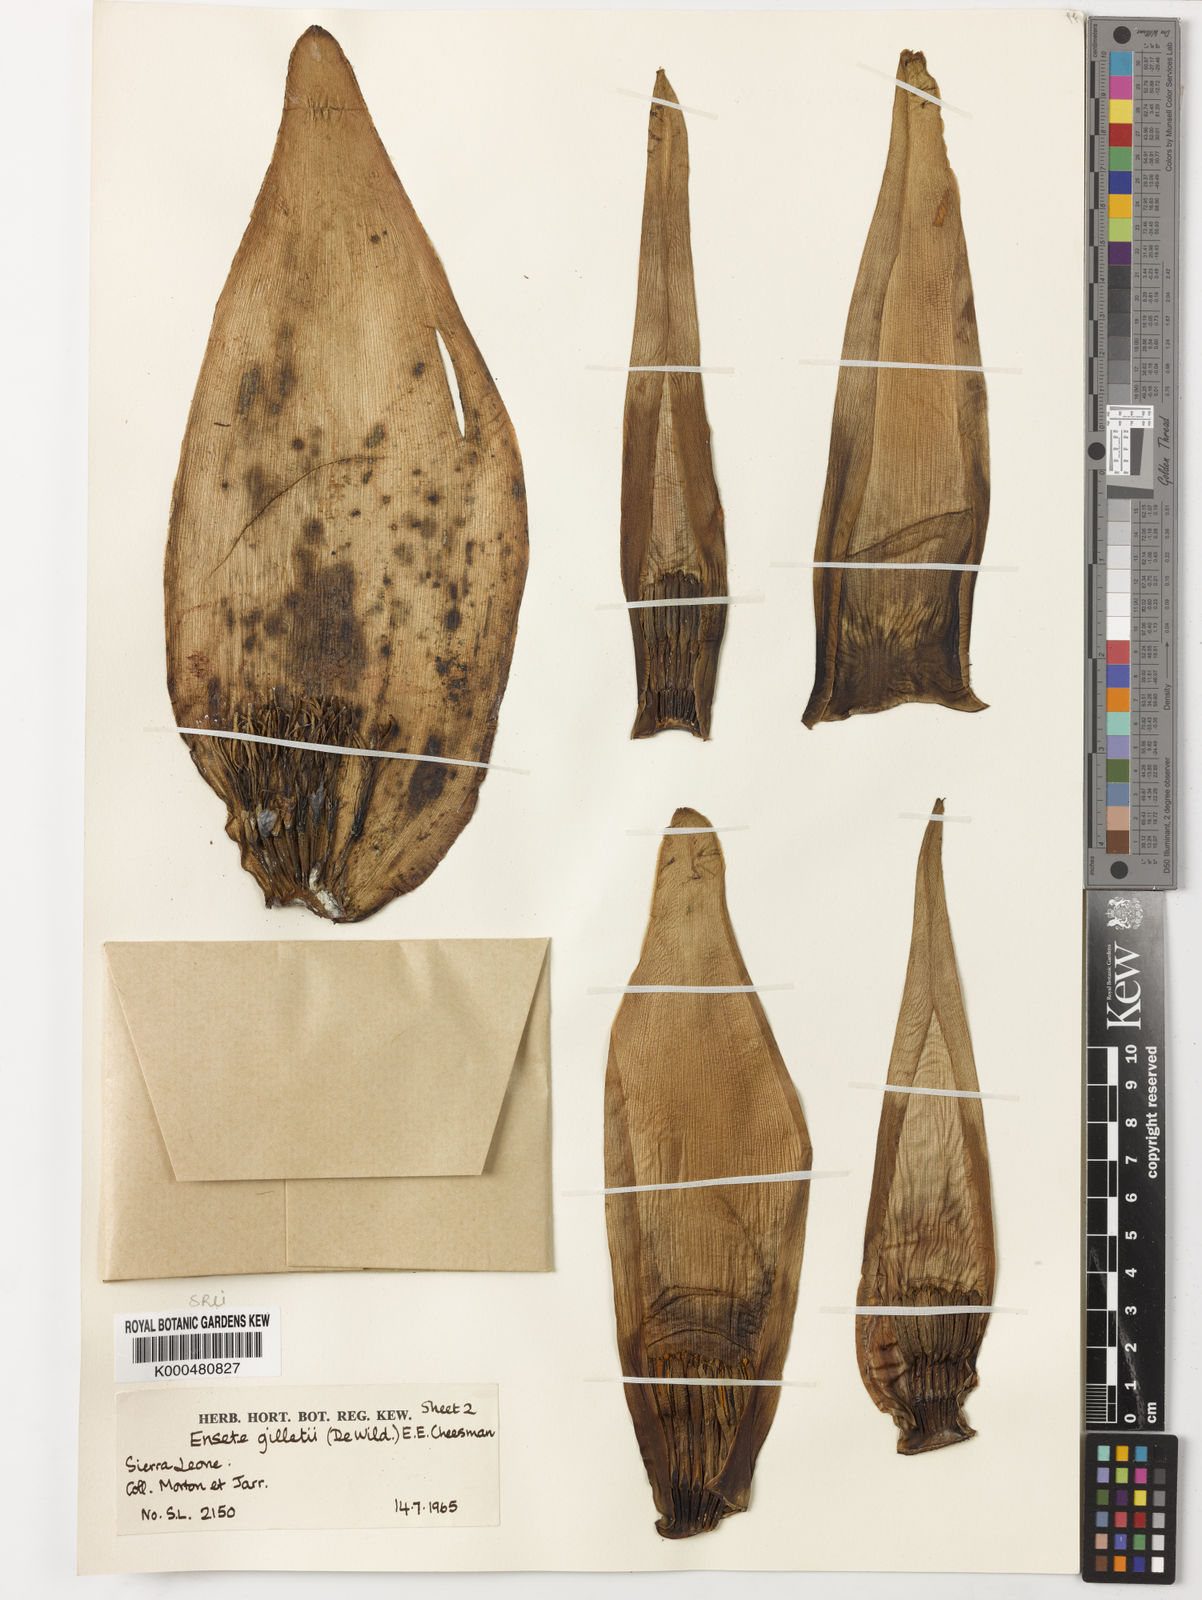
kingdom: Plantae
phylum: Tracheophyta
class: Liliopsida
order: Zingiberales
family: Musaceae
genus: Ensete
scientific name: Ensete livingstonianum
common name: Livingston's banana
